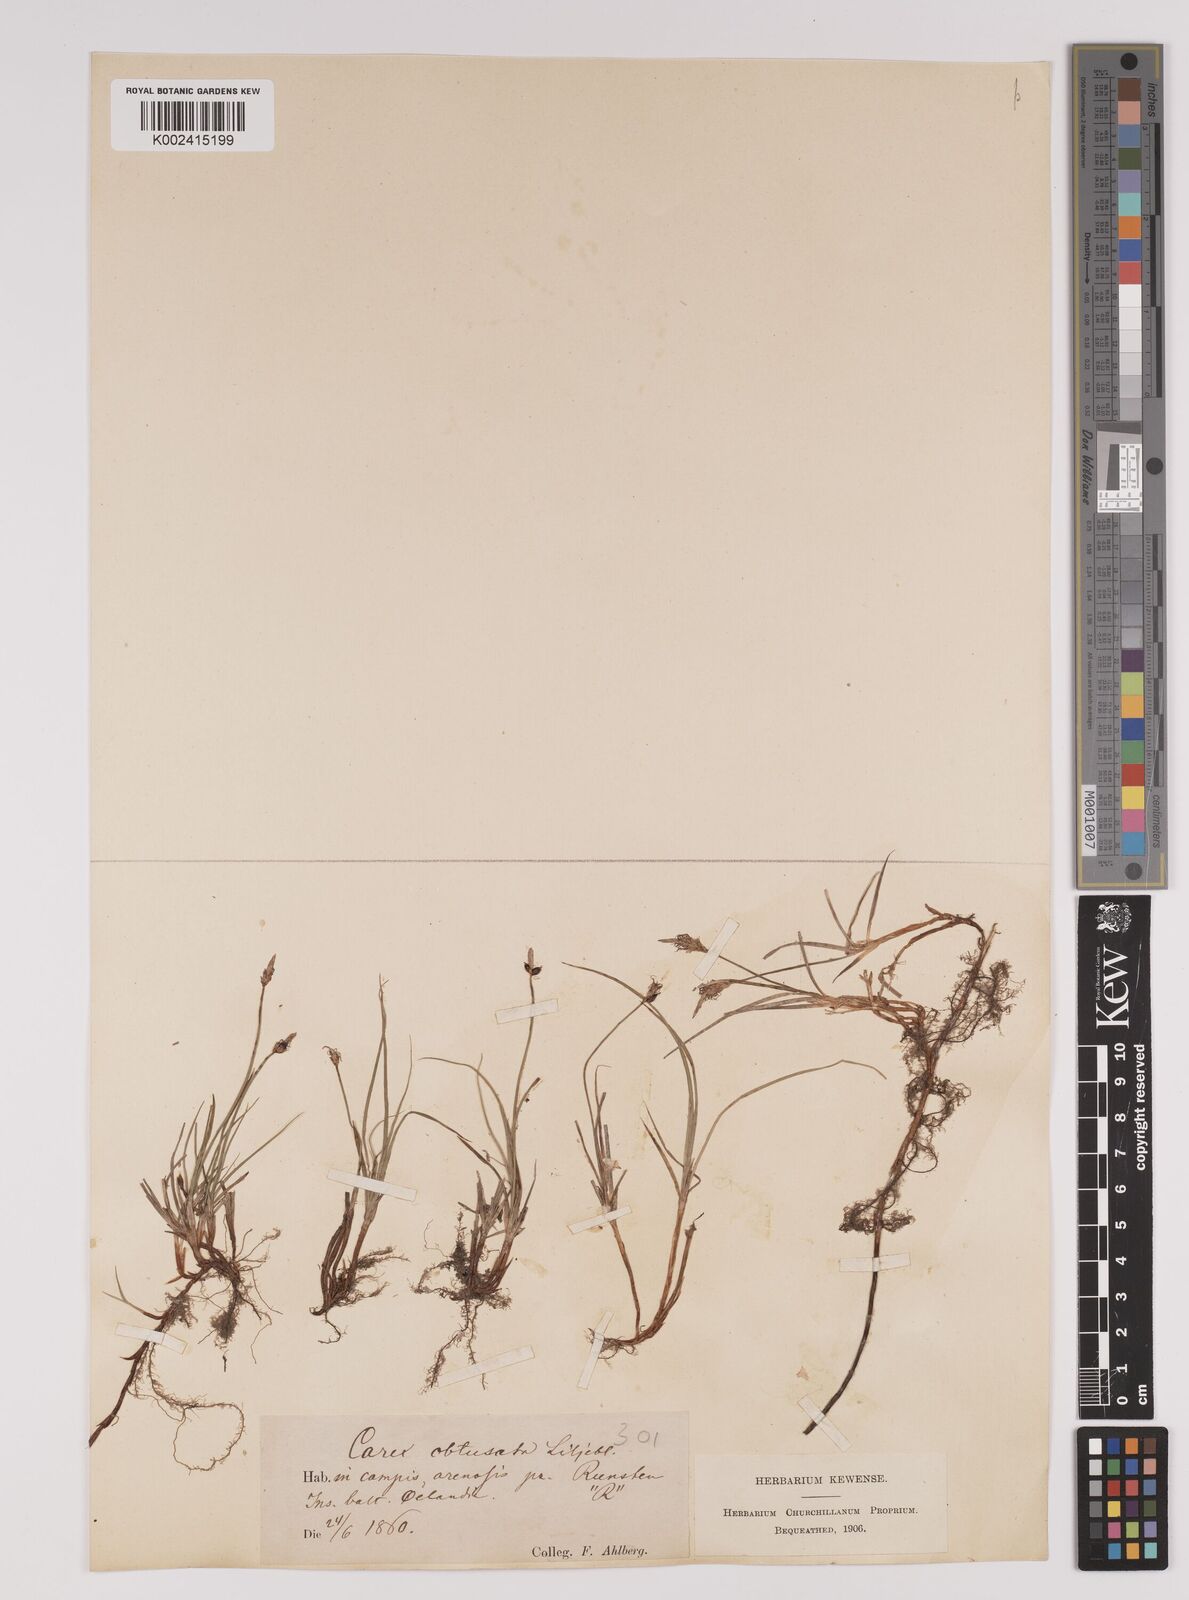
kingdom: Plantae
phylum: Tracheophyta
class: Liliopsida
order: Poales
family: Cyperaceae
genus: Carex
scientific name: Carex obtusata
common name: Blunt sedge
